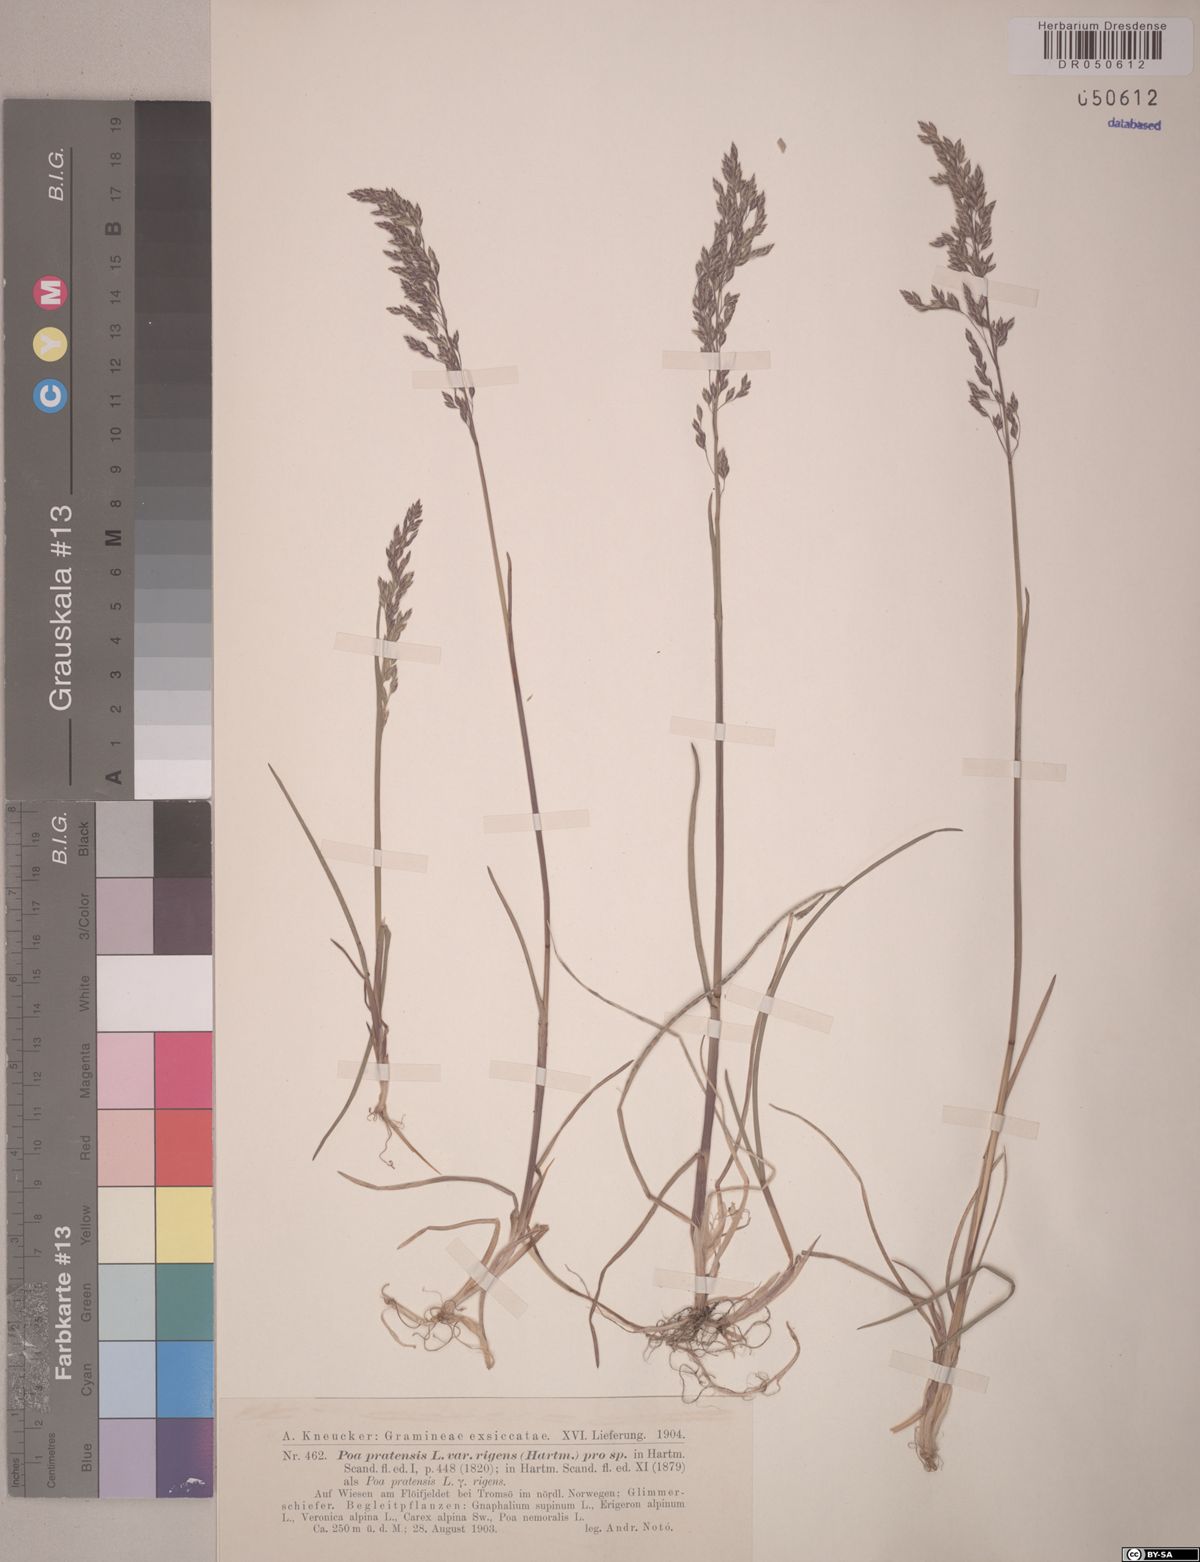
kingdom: Plantae
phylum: Tracheophyta
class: Liliopsida
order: Poales
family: Poaceae
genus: Poa
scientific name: Poa alpigena
